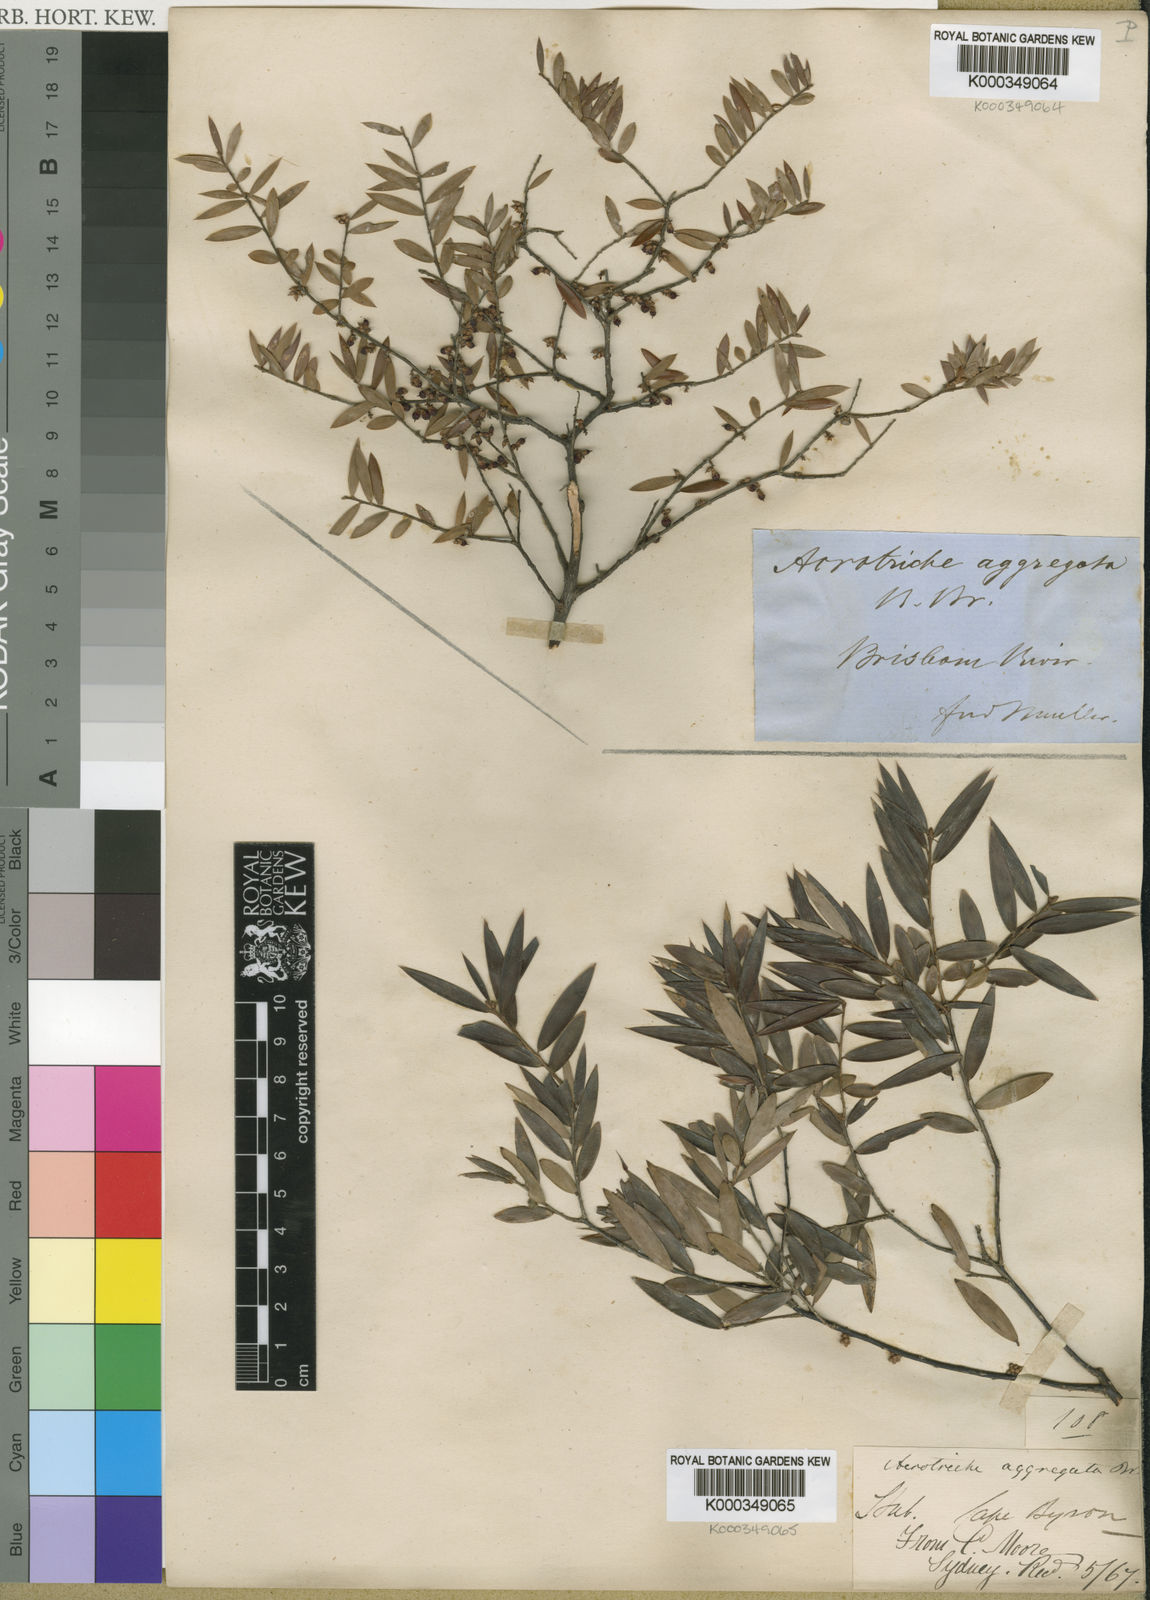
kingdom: Plantae
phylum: Tracheophyta
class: Magnoliopsida
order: Ericales
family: Ericaceae
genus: Acrotriche
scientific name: Acrotriche aggregata
